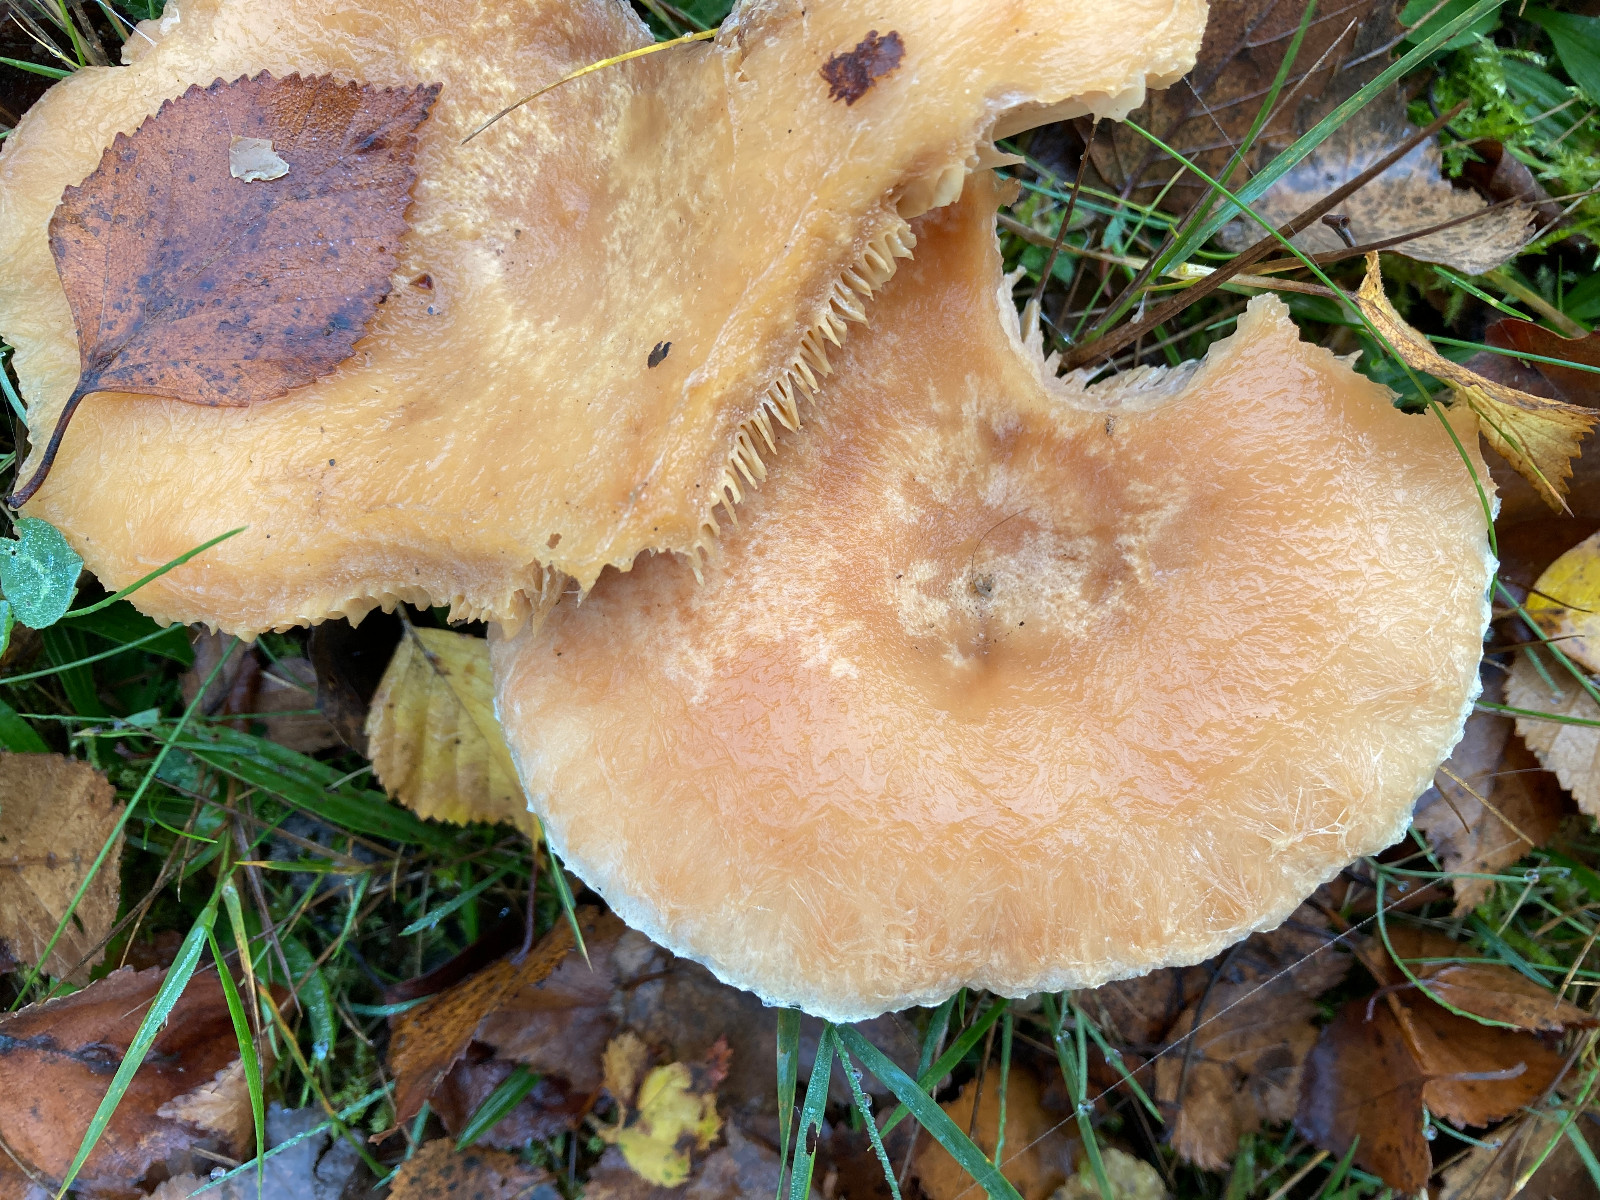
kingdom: Fungi
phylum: Basidiomycota
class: Agaricomycetes
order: Russulales
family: Russulaceae
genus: Lactarius
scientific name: Lactarius pubescens
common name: dunet mælkehat
